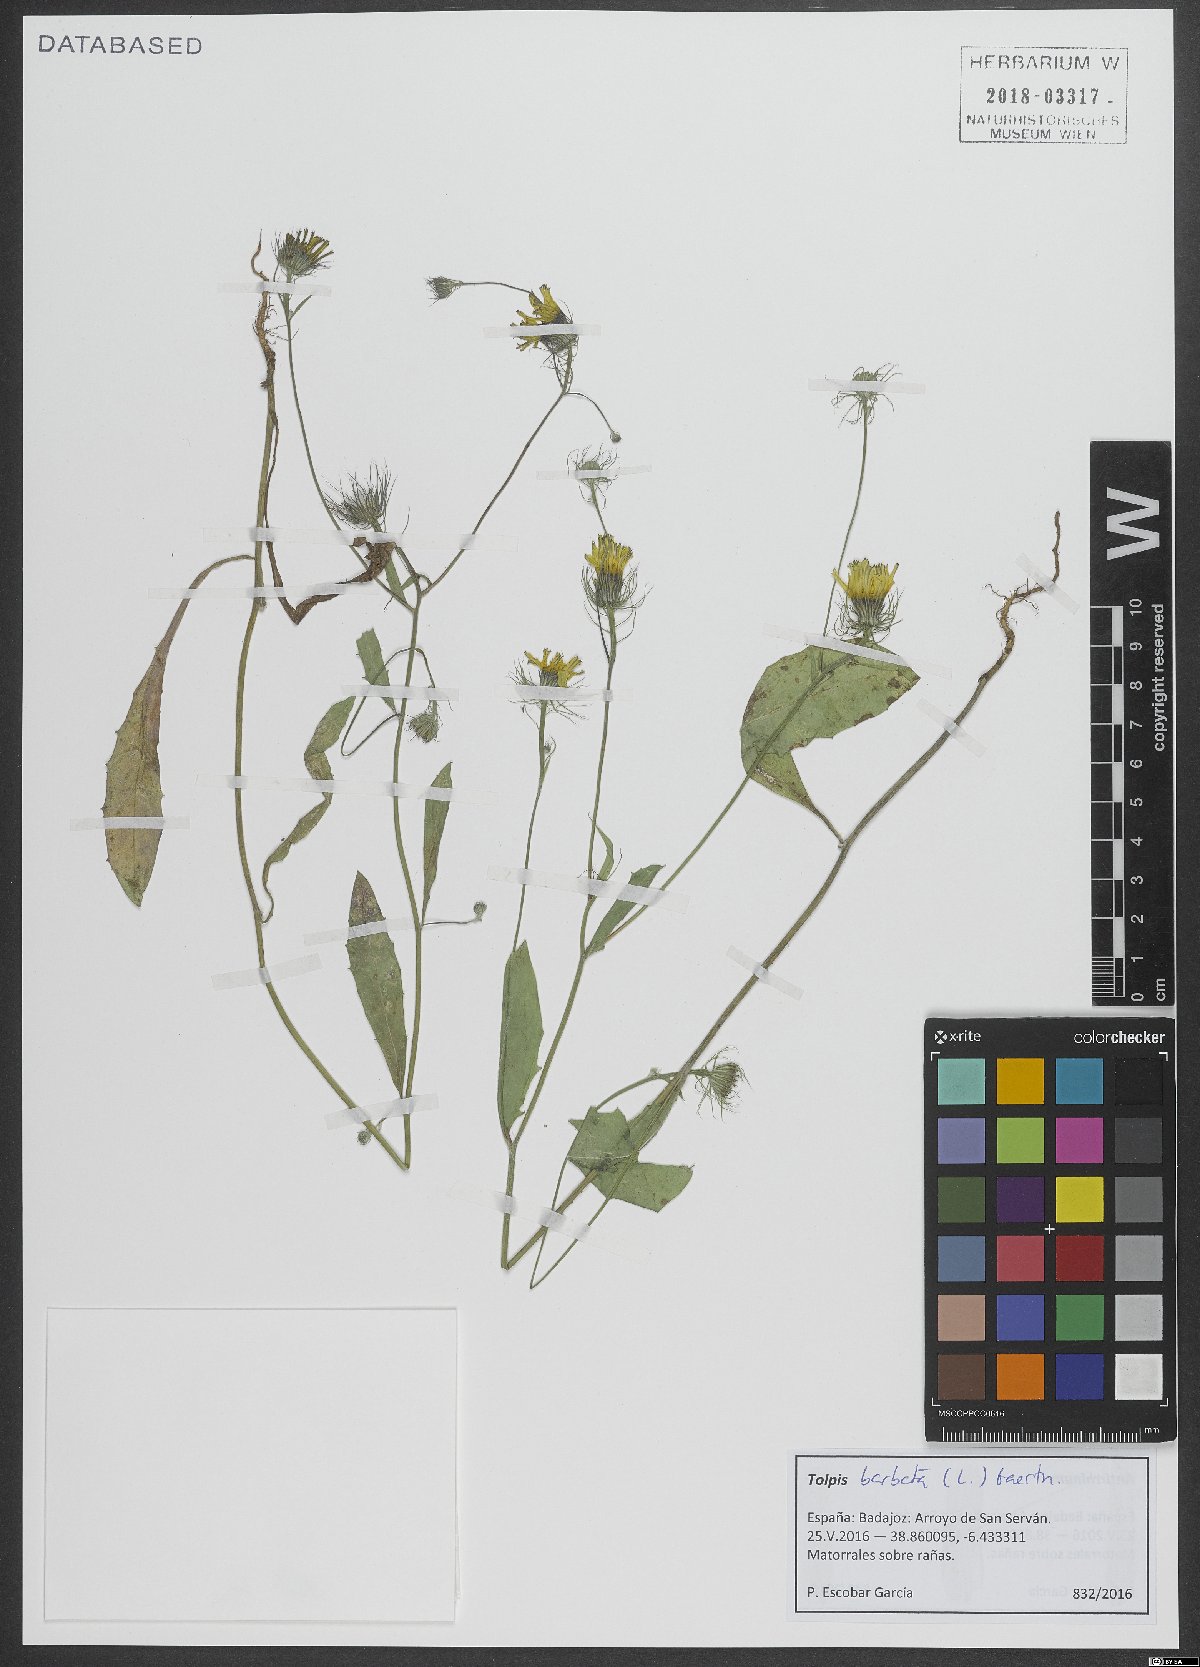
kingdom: Plantae
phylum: Tracheophyta
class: Magnoliopsida
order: Asterales
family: Asteraceae
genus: Tolpis
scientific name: Tolpis barbata
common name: Yellow hawkweed
